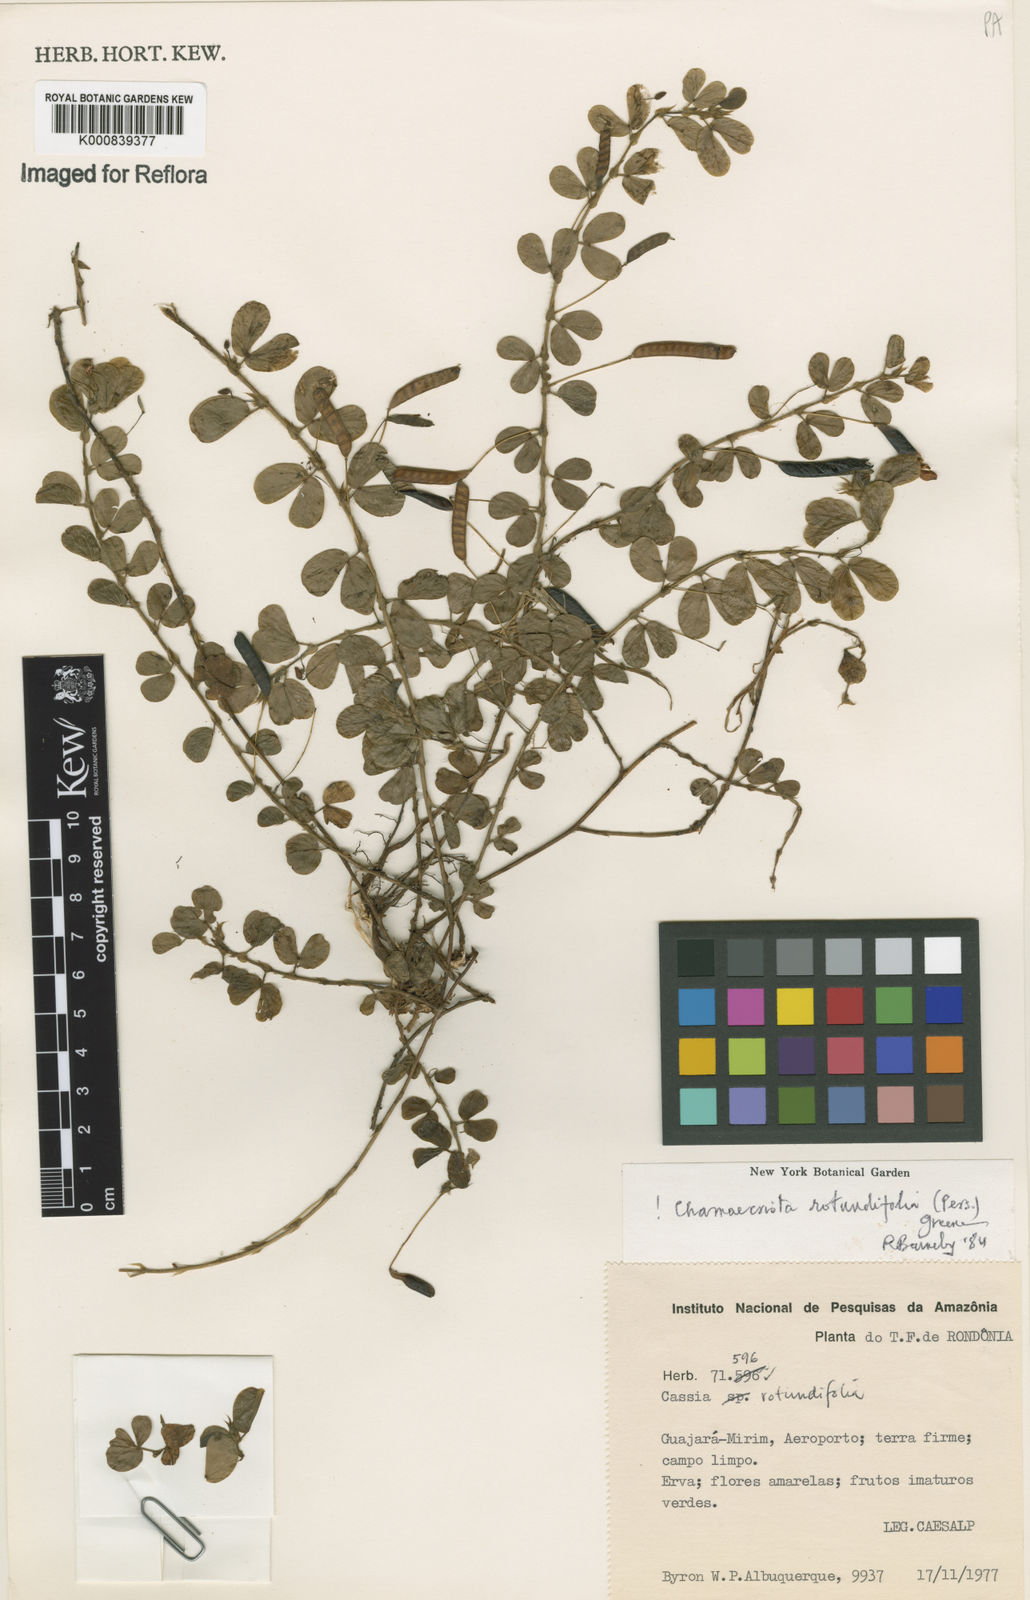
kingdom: Plantae
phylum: Tracheophyta
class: Magnoliopsida
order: Fabales
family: Fabaceae
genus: Chamaecrista
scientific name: Chamaecrista rotundifolia
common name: Round-leaf cassia
